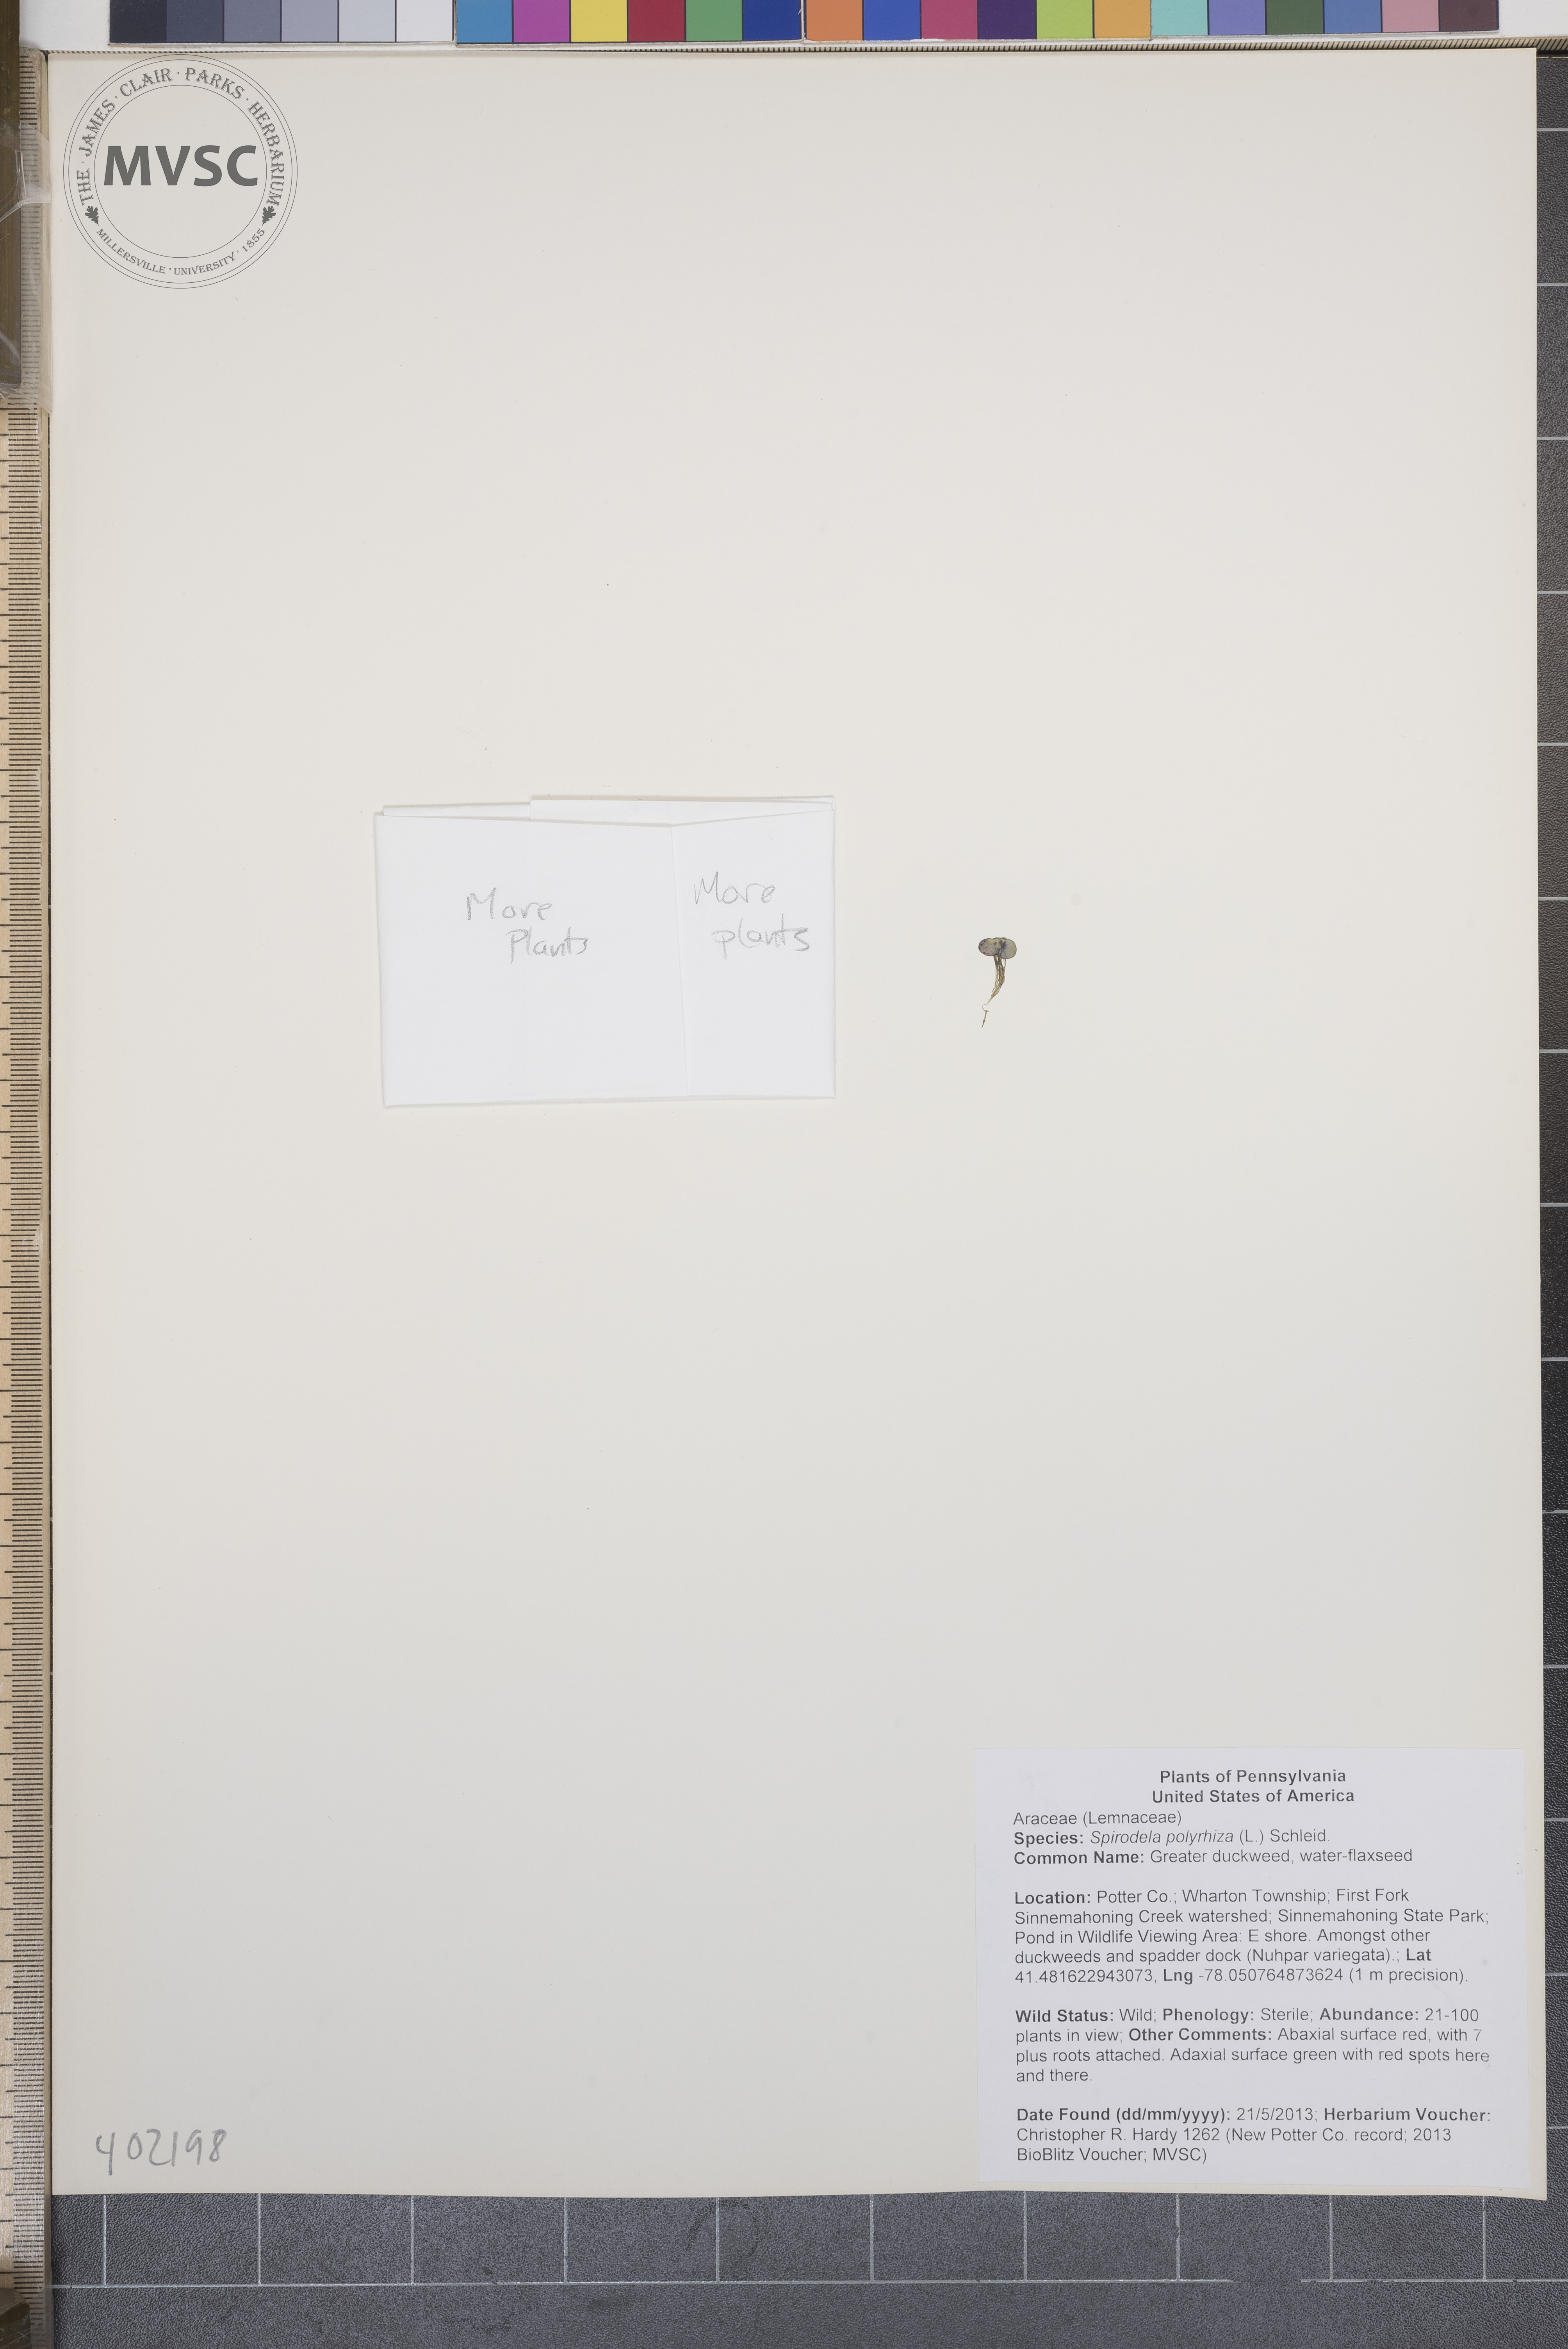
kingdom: Plantae
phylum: Tracheophyta
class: Liliopsida
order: Alismatales
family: Araceae
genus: Spirodela
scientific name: Spirodela polyrhiza
